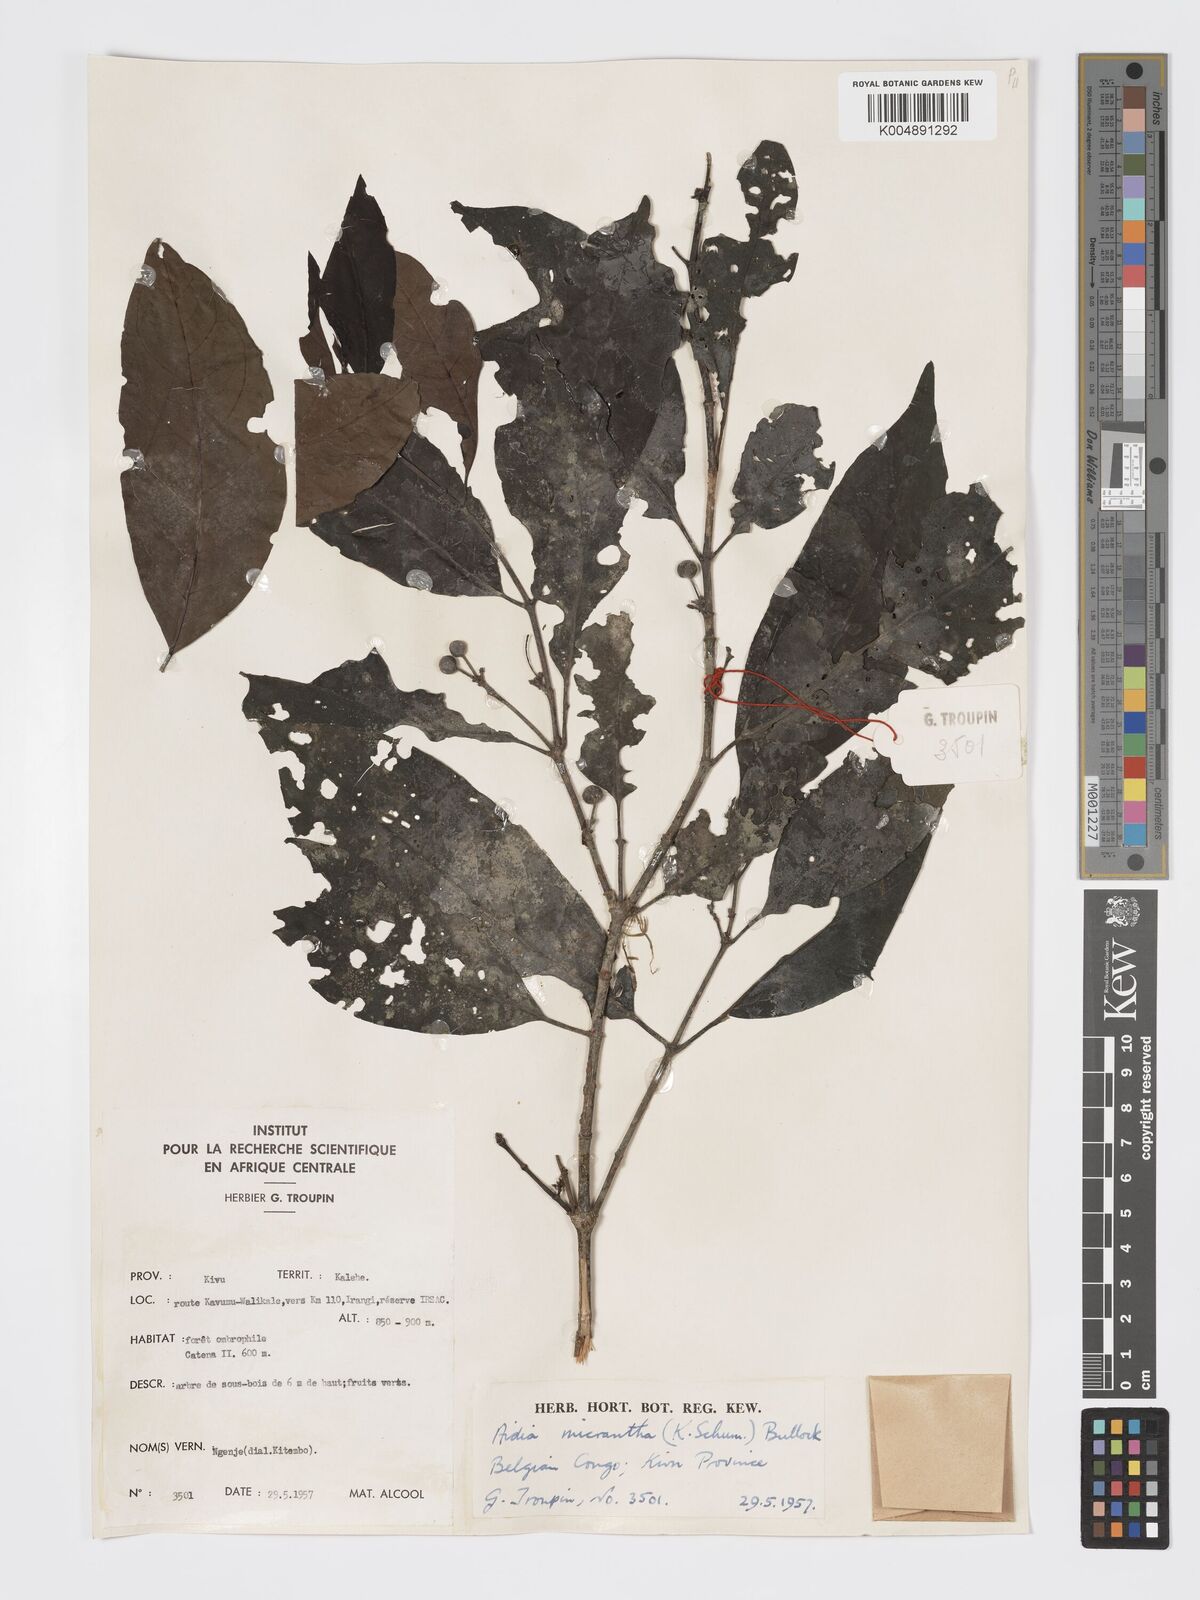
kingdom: Plantae
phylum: Tracheophyta
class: Magnoliopsida
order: Gentianales
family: Rubiaceae
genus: Aidia
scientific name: Aidia micrantha
